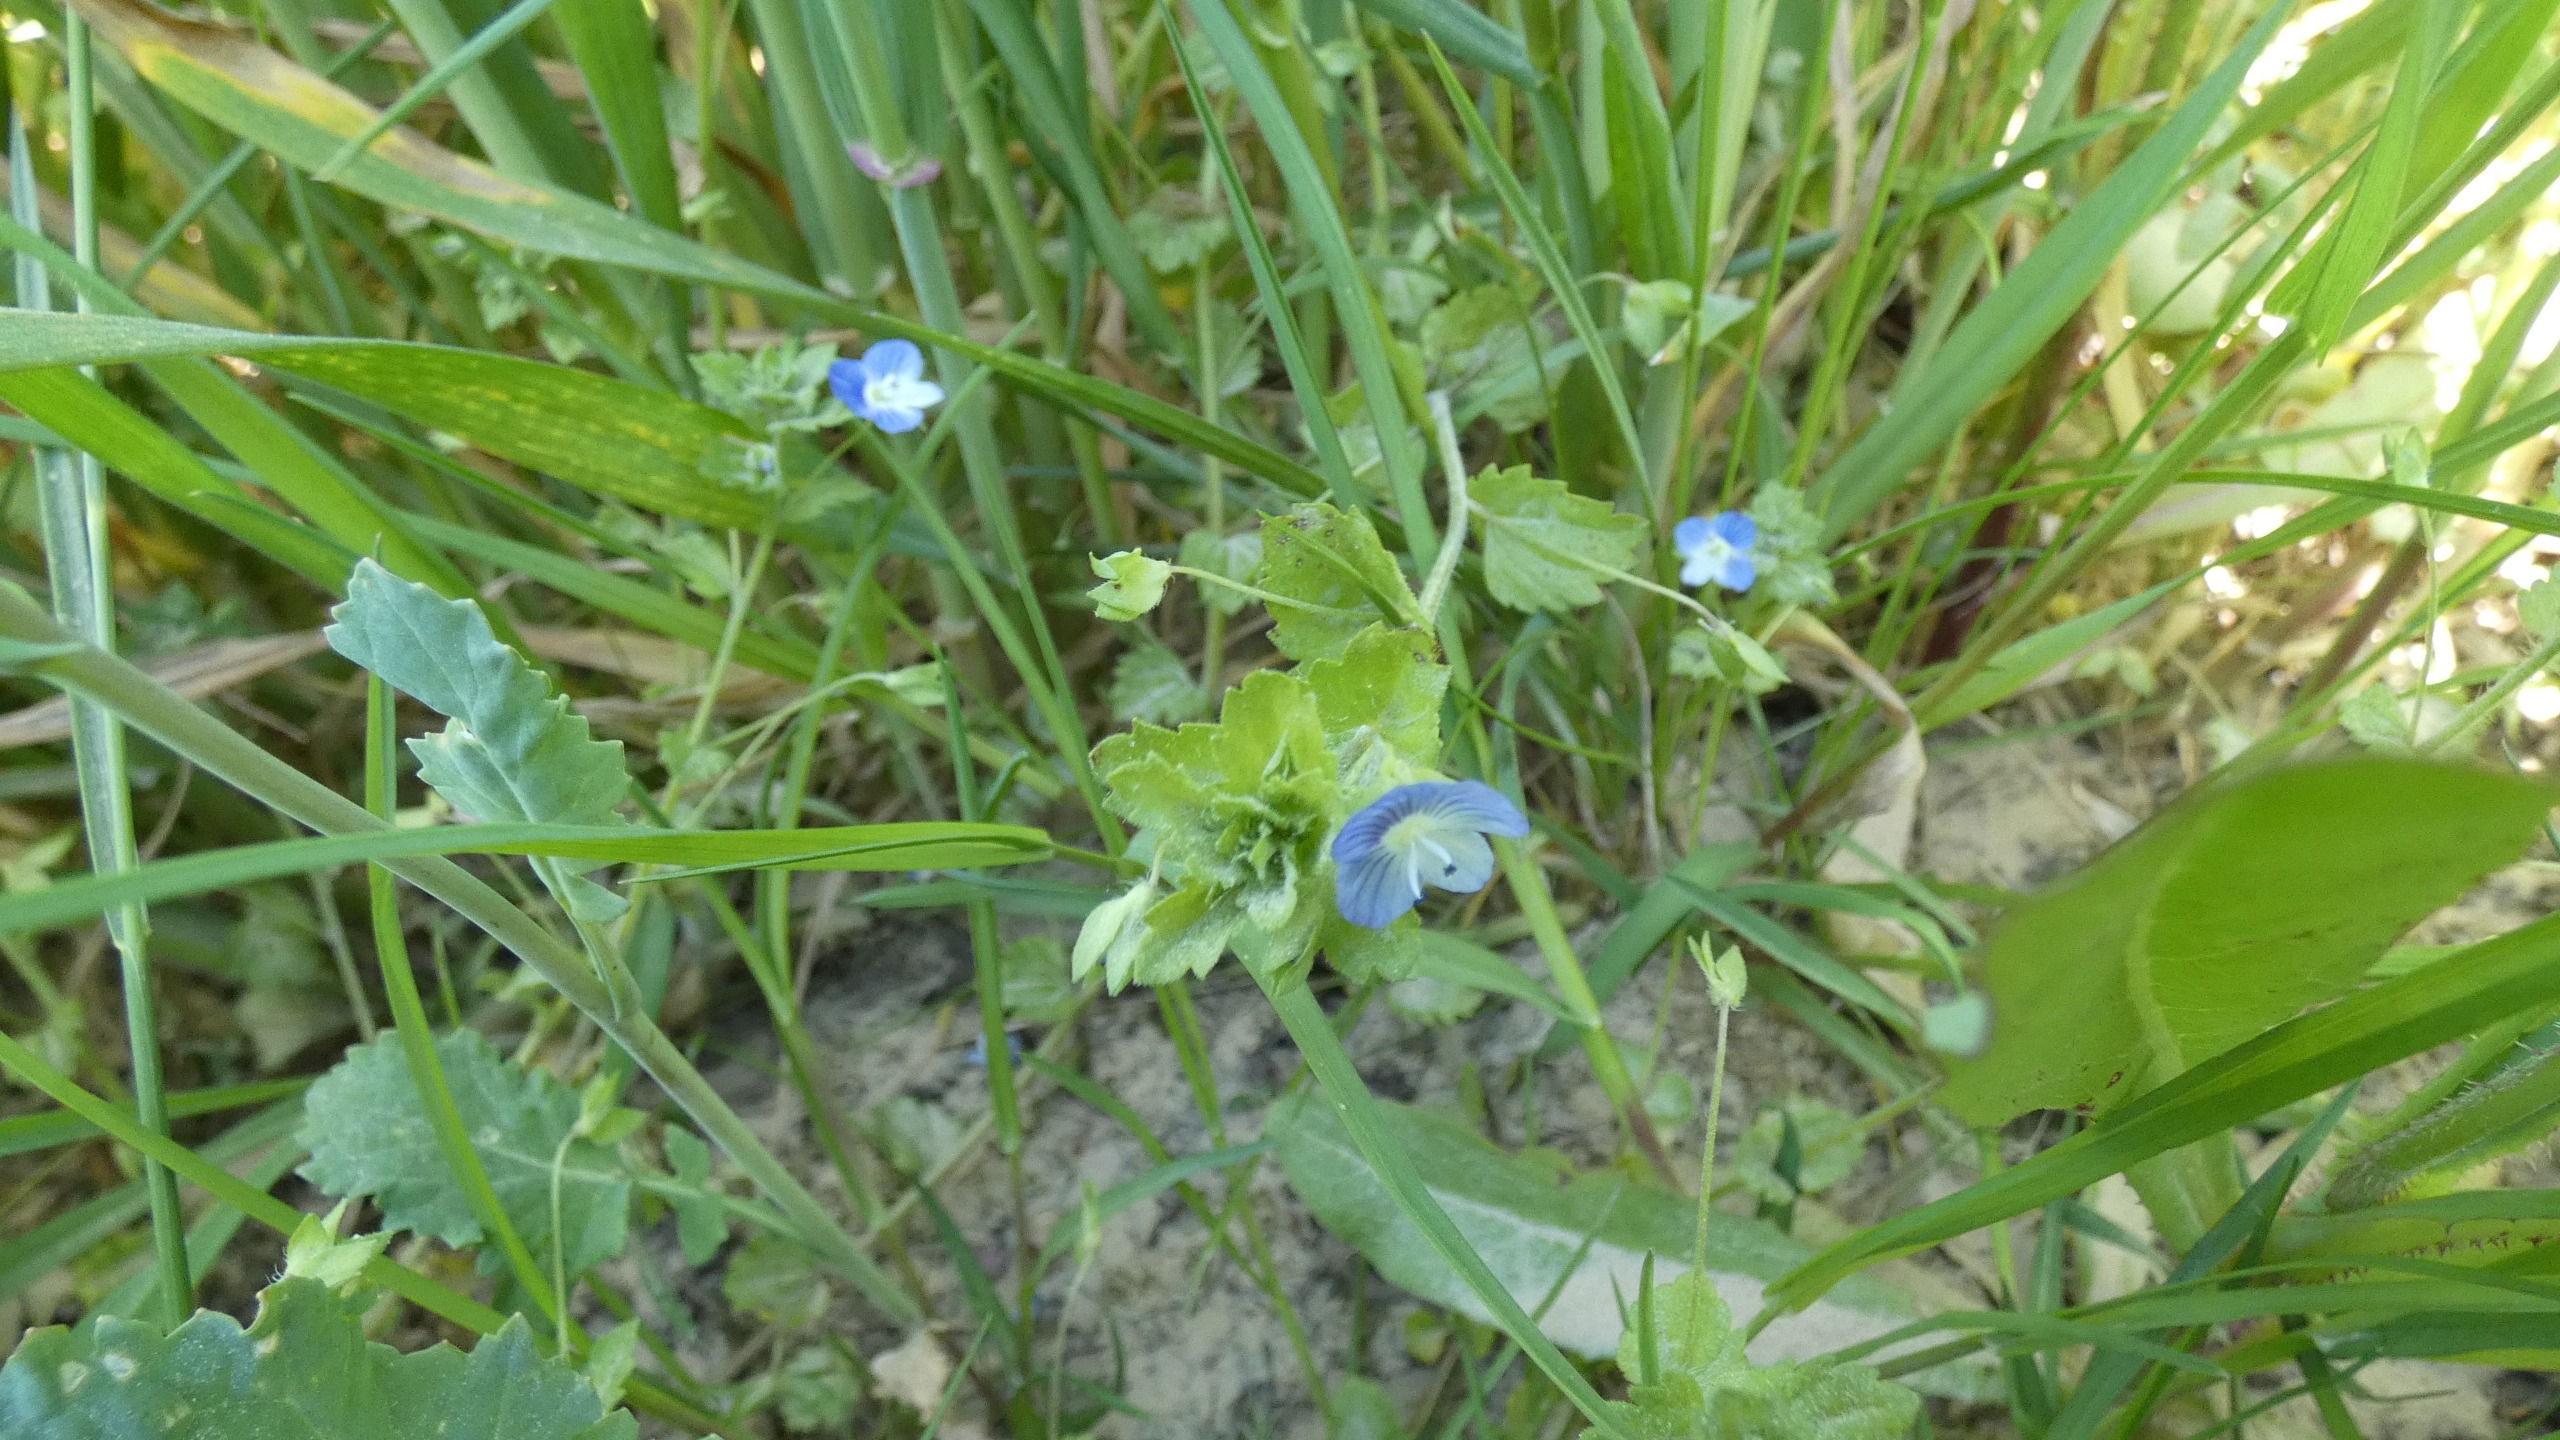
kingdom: Plantae
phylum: Tracheophyta
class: Magnoliopsida
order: Lamiales
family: Plantaginaceae
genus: Veronica
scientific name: Veronica persica
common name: Storkronet ærenpris
